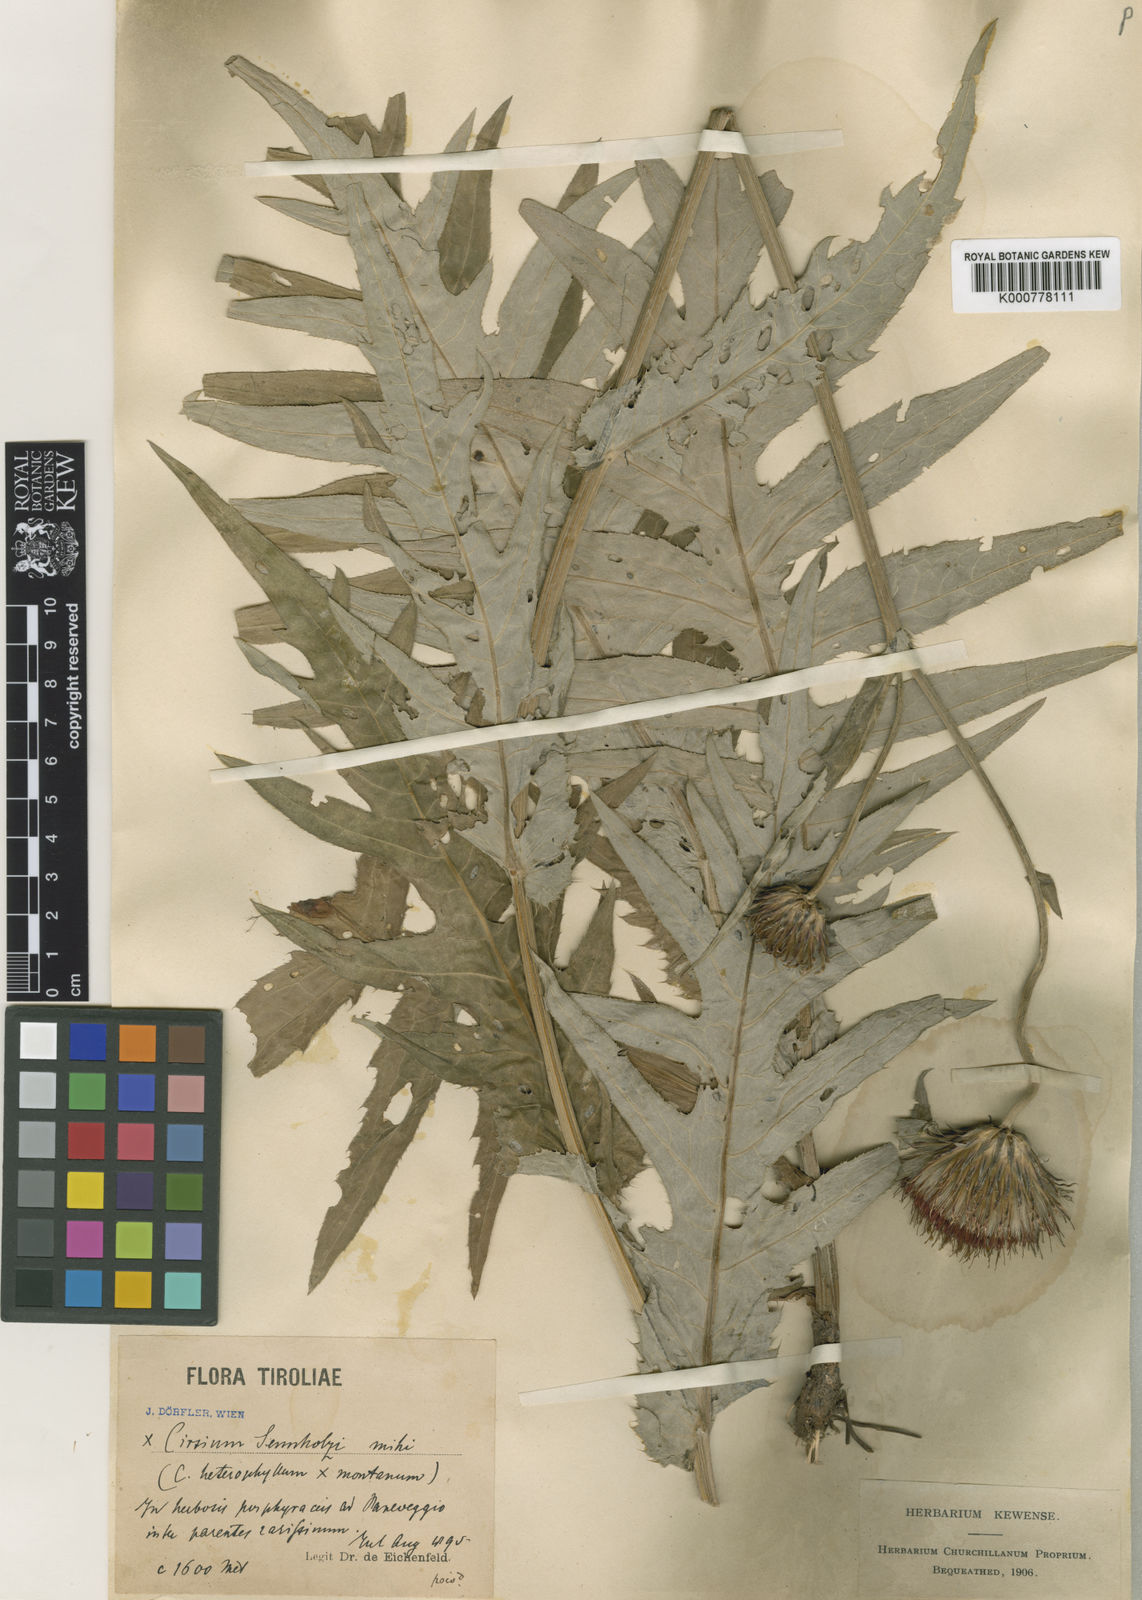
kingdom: Plantae
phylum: Tracheophyta
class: Magnoliopsida
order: Asterales
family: Asteraceae
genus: Cirsium
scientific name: Cirsium heterophyllum
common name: Melancholy thistle
